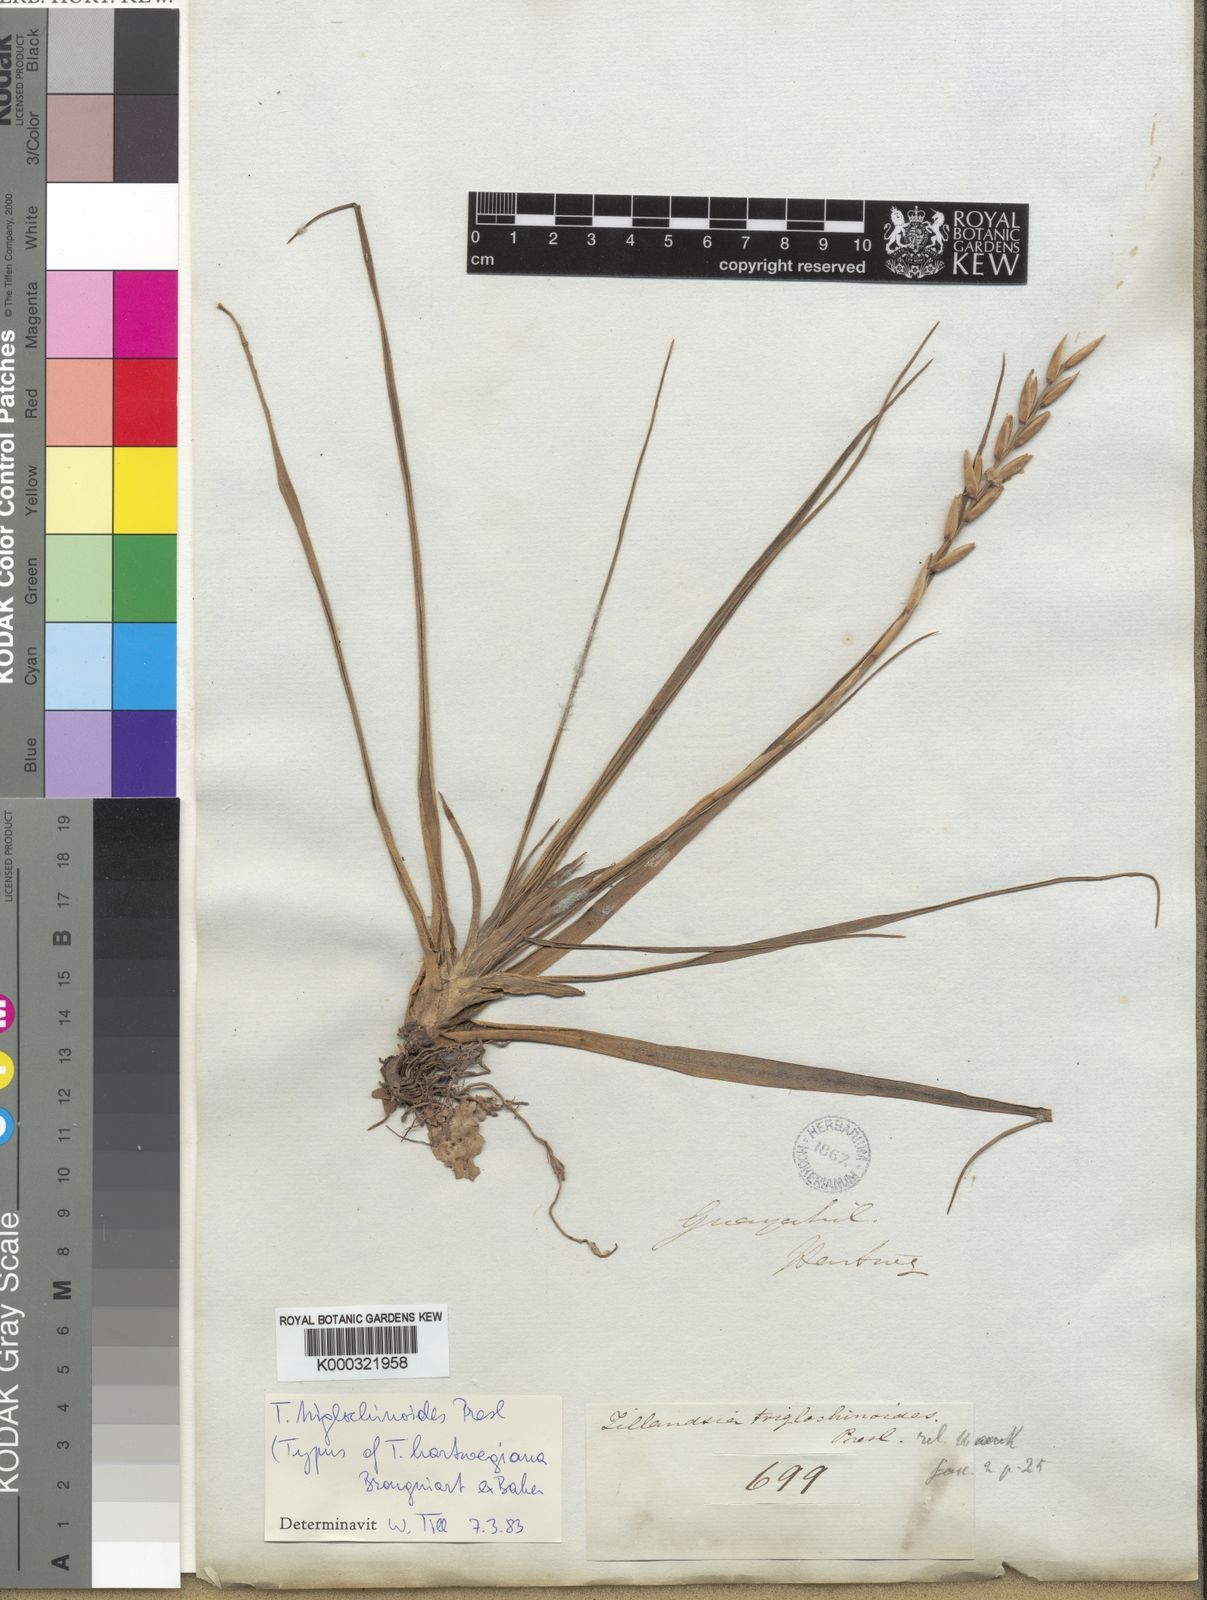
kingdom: Plantae
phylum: Tracheophyta
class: Liliopsida
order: Poales
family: Bromeliaceae
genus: Lemeltonia
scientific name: Lemeltonia triglochinoides
